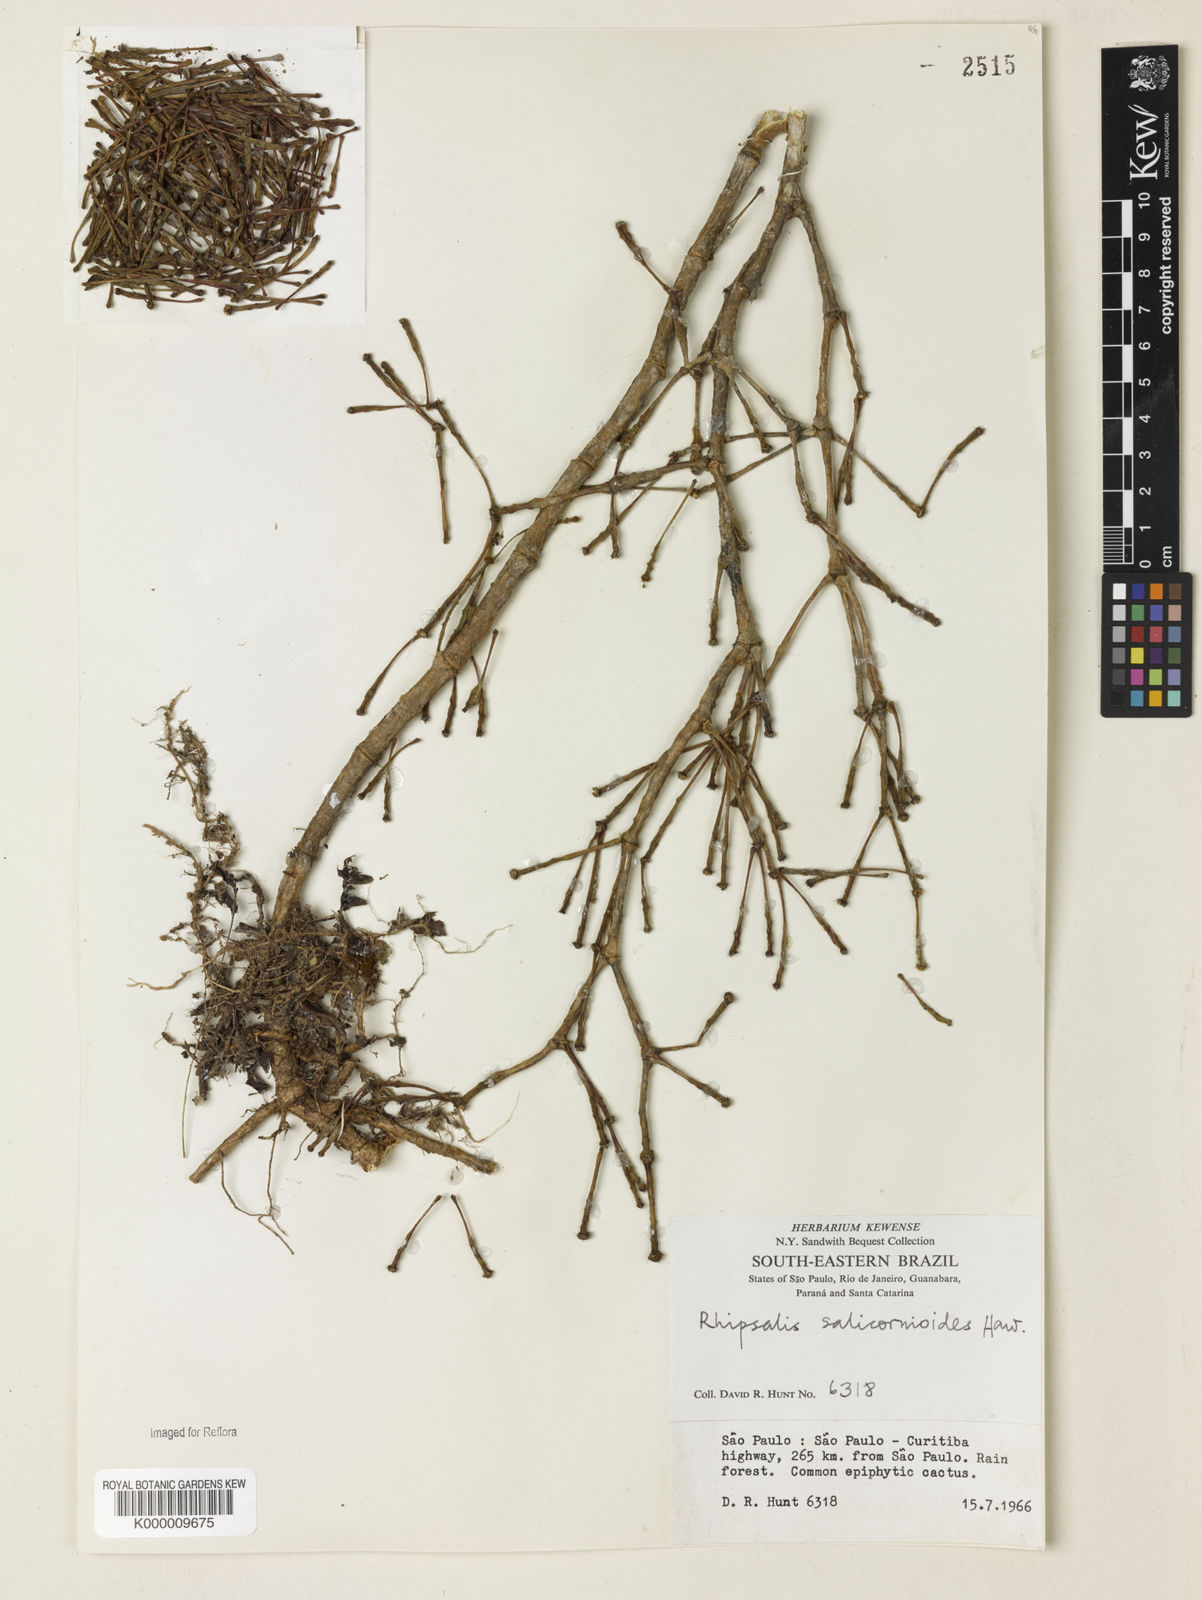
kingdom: Plantae
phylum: Tracheophyta
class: Magnoliopsida
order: Caryophyllales
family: Cactaceae
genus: Hatiora
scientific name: Hatiora
